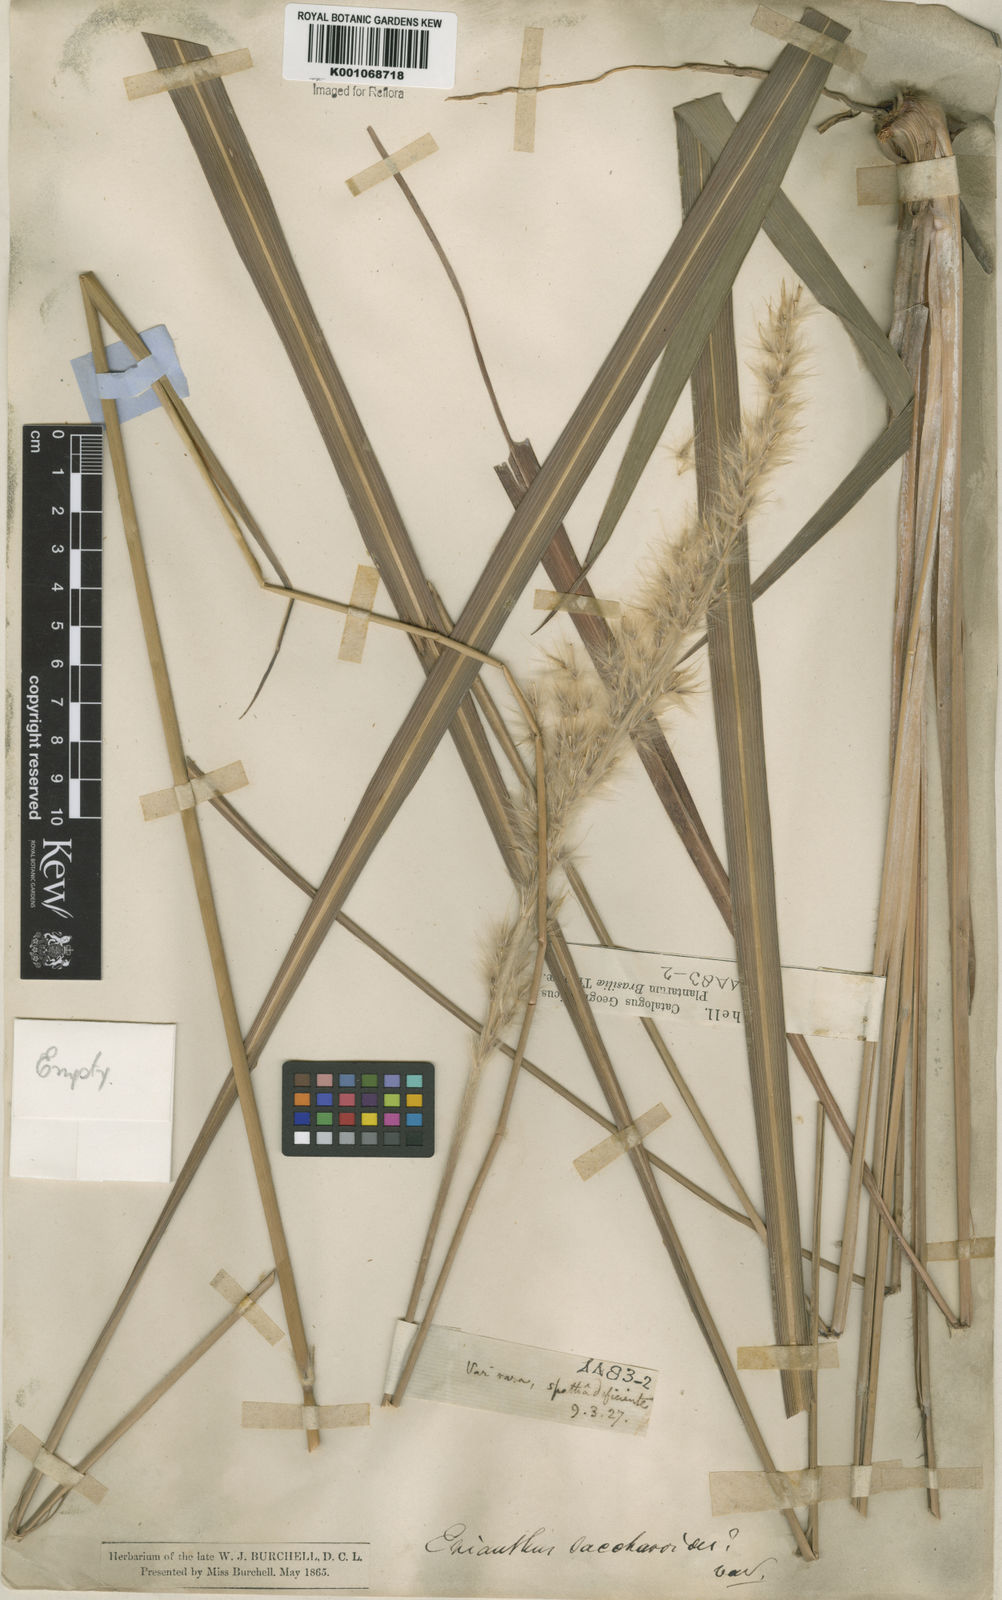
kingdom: Plantae
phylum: Tracheophyta
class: Liliopsida
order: Poales
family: Poaceae
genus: Saccharum
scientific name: Saccharum angustifolium
